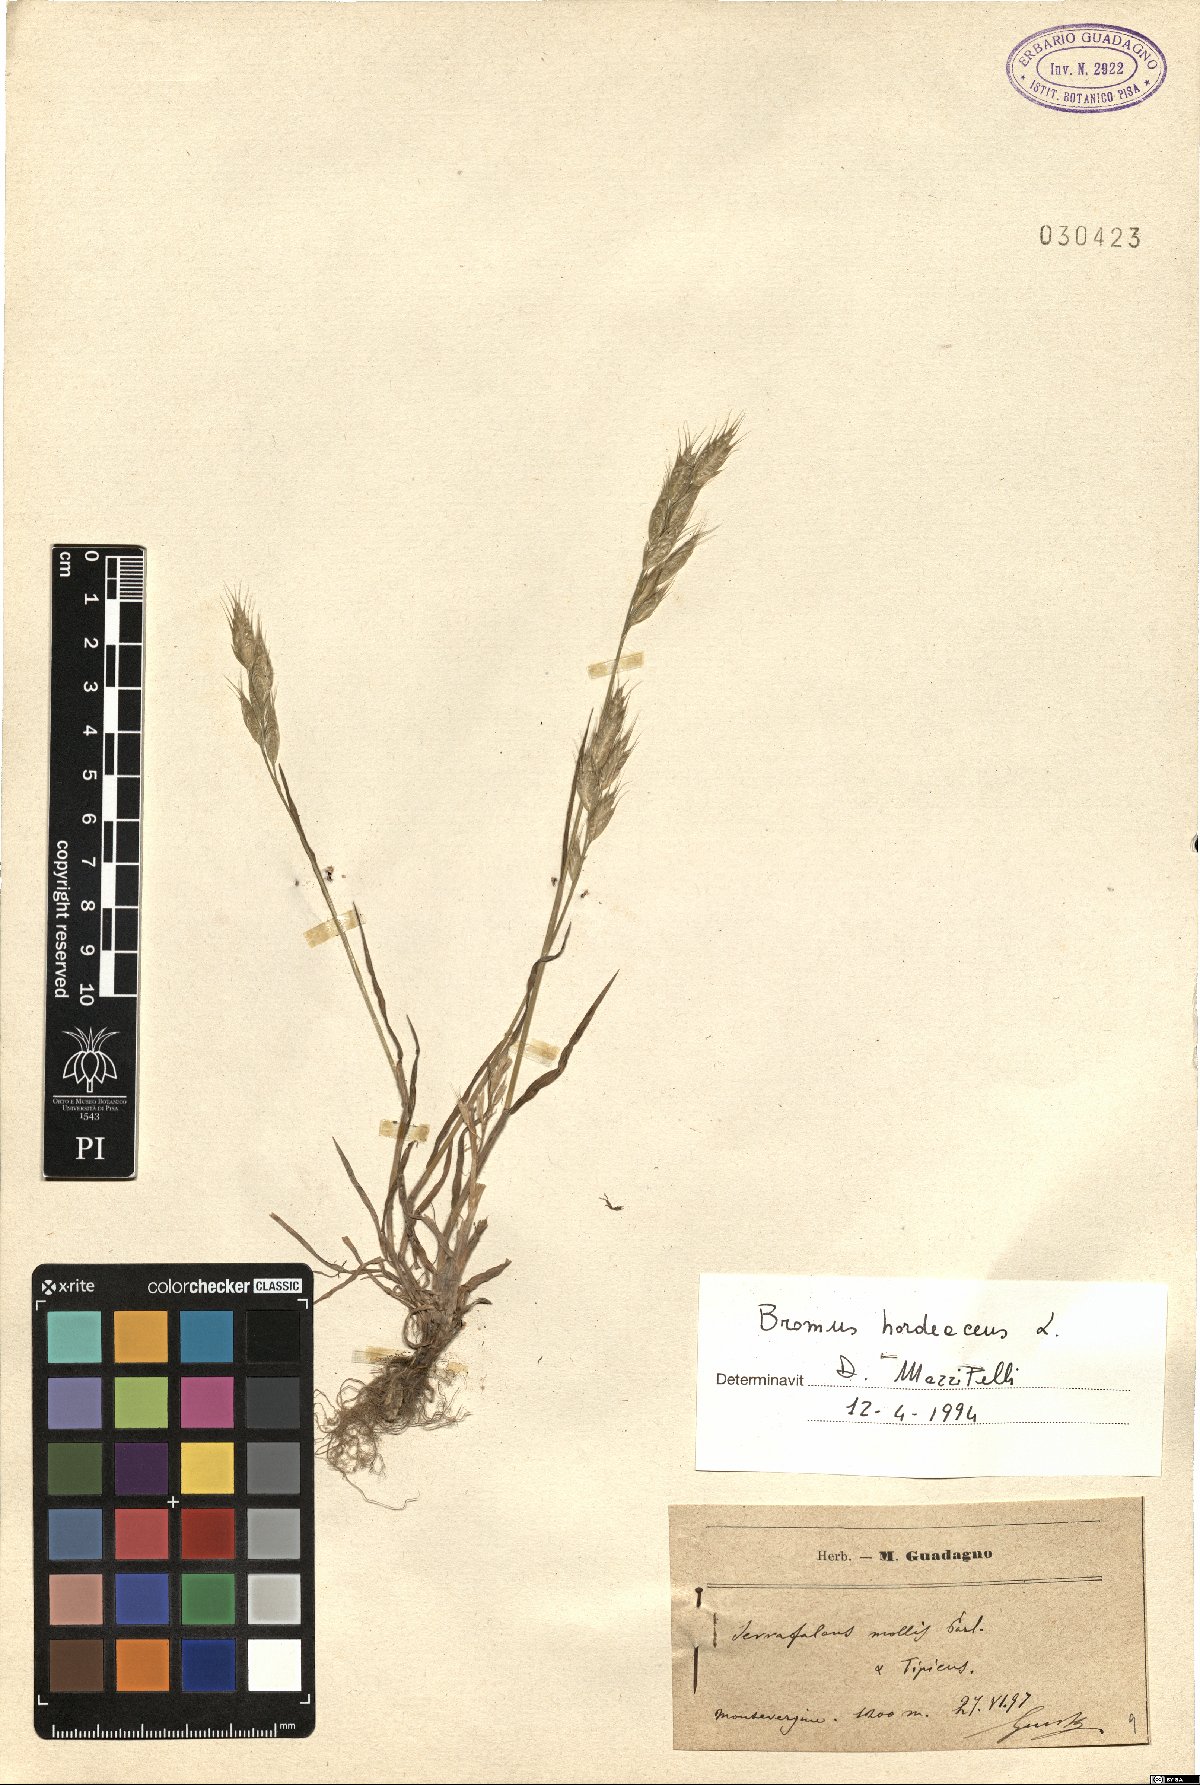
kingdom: Plantae
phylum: Tracheophyta
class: Liliopsida
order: Poales
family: Poaceae
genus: Bromus
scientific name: Bromus hordeaceus
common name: Soft brome
